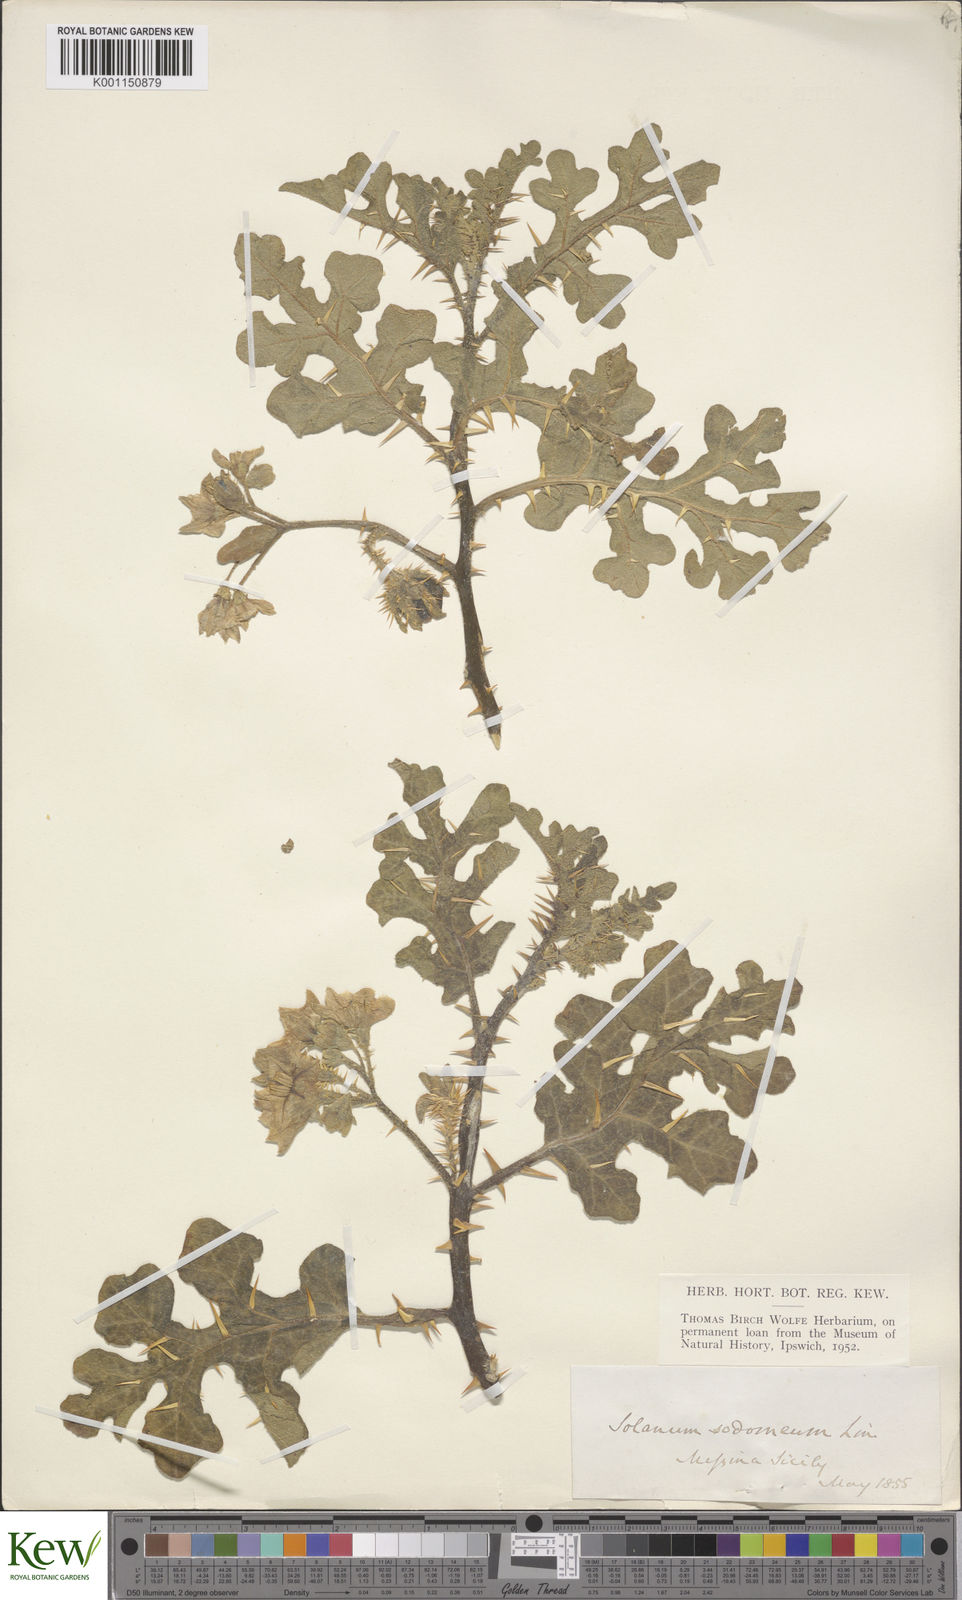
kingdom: Plantae
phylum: Tracheophyta
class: Magnoliopsida
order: Solanales
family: Solanaceae
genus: Solanum
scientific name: Solanum anguivi
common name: Forest bitterberry
